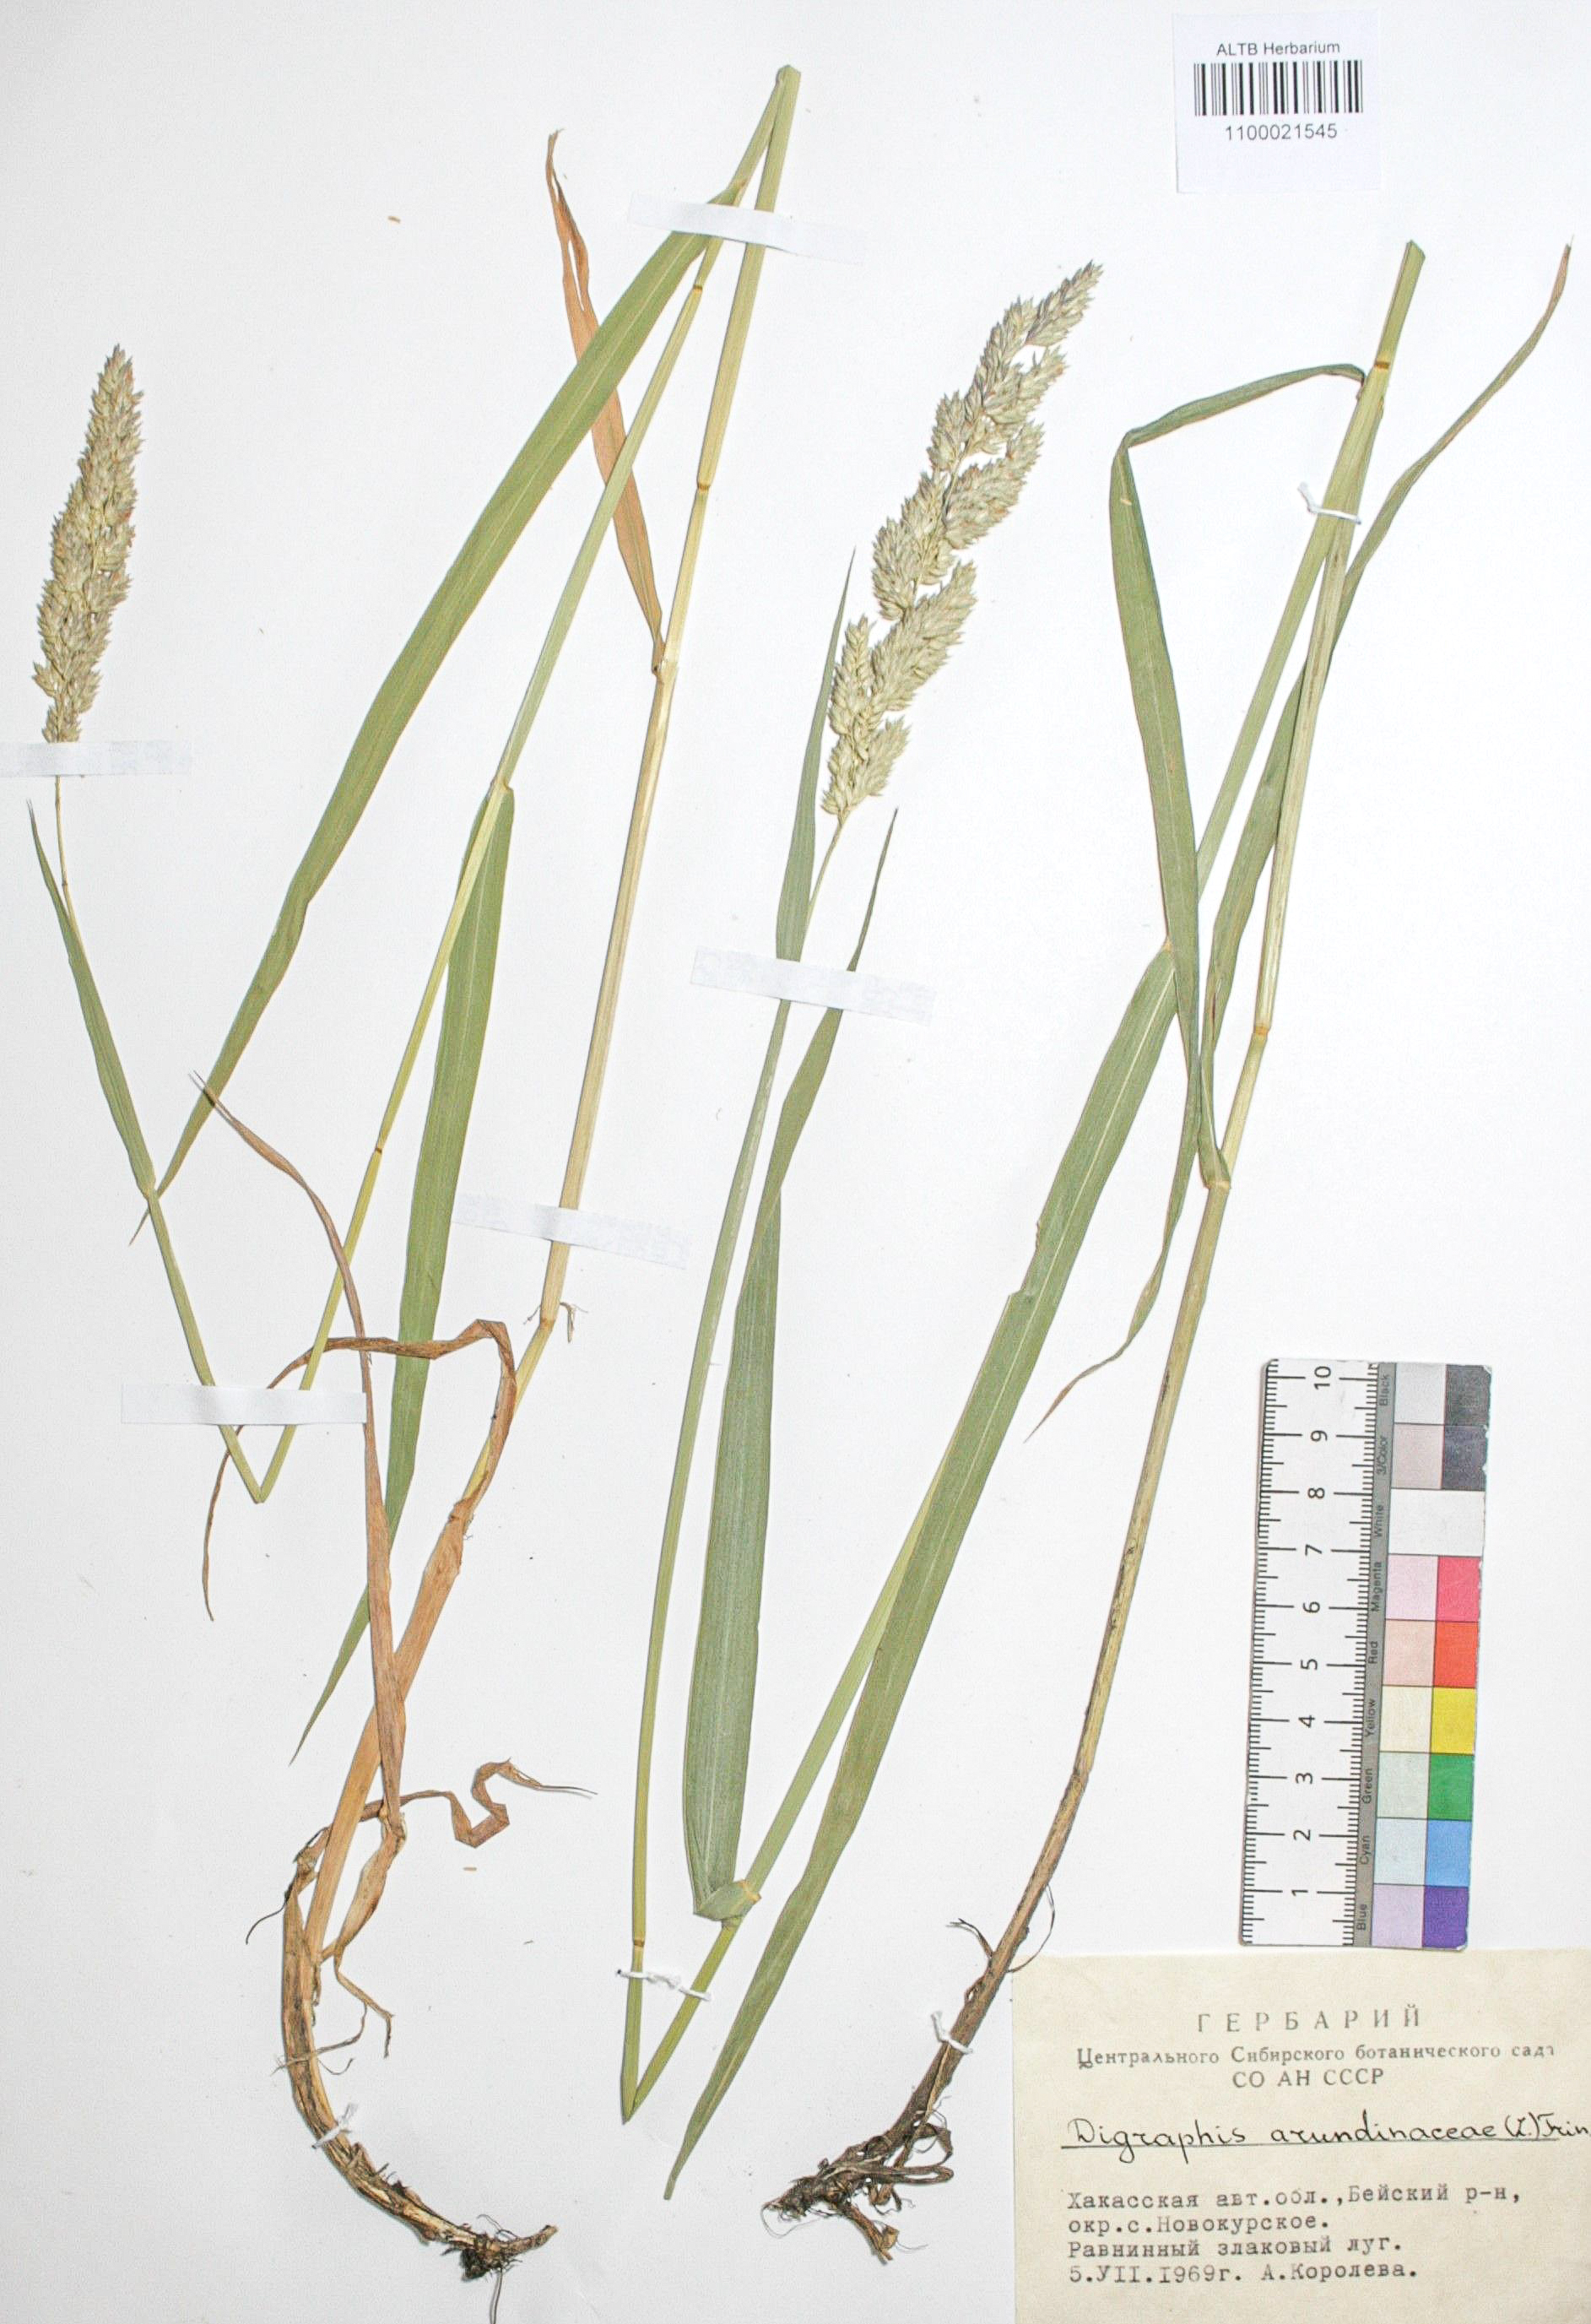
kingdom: Plantae
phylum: Tracheophyta
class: Liliopsida
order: Poales
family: Poaceae
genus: Phalaris
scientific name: Phalaris arundinacea
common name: Reed canary-grass
